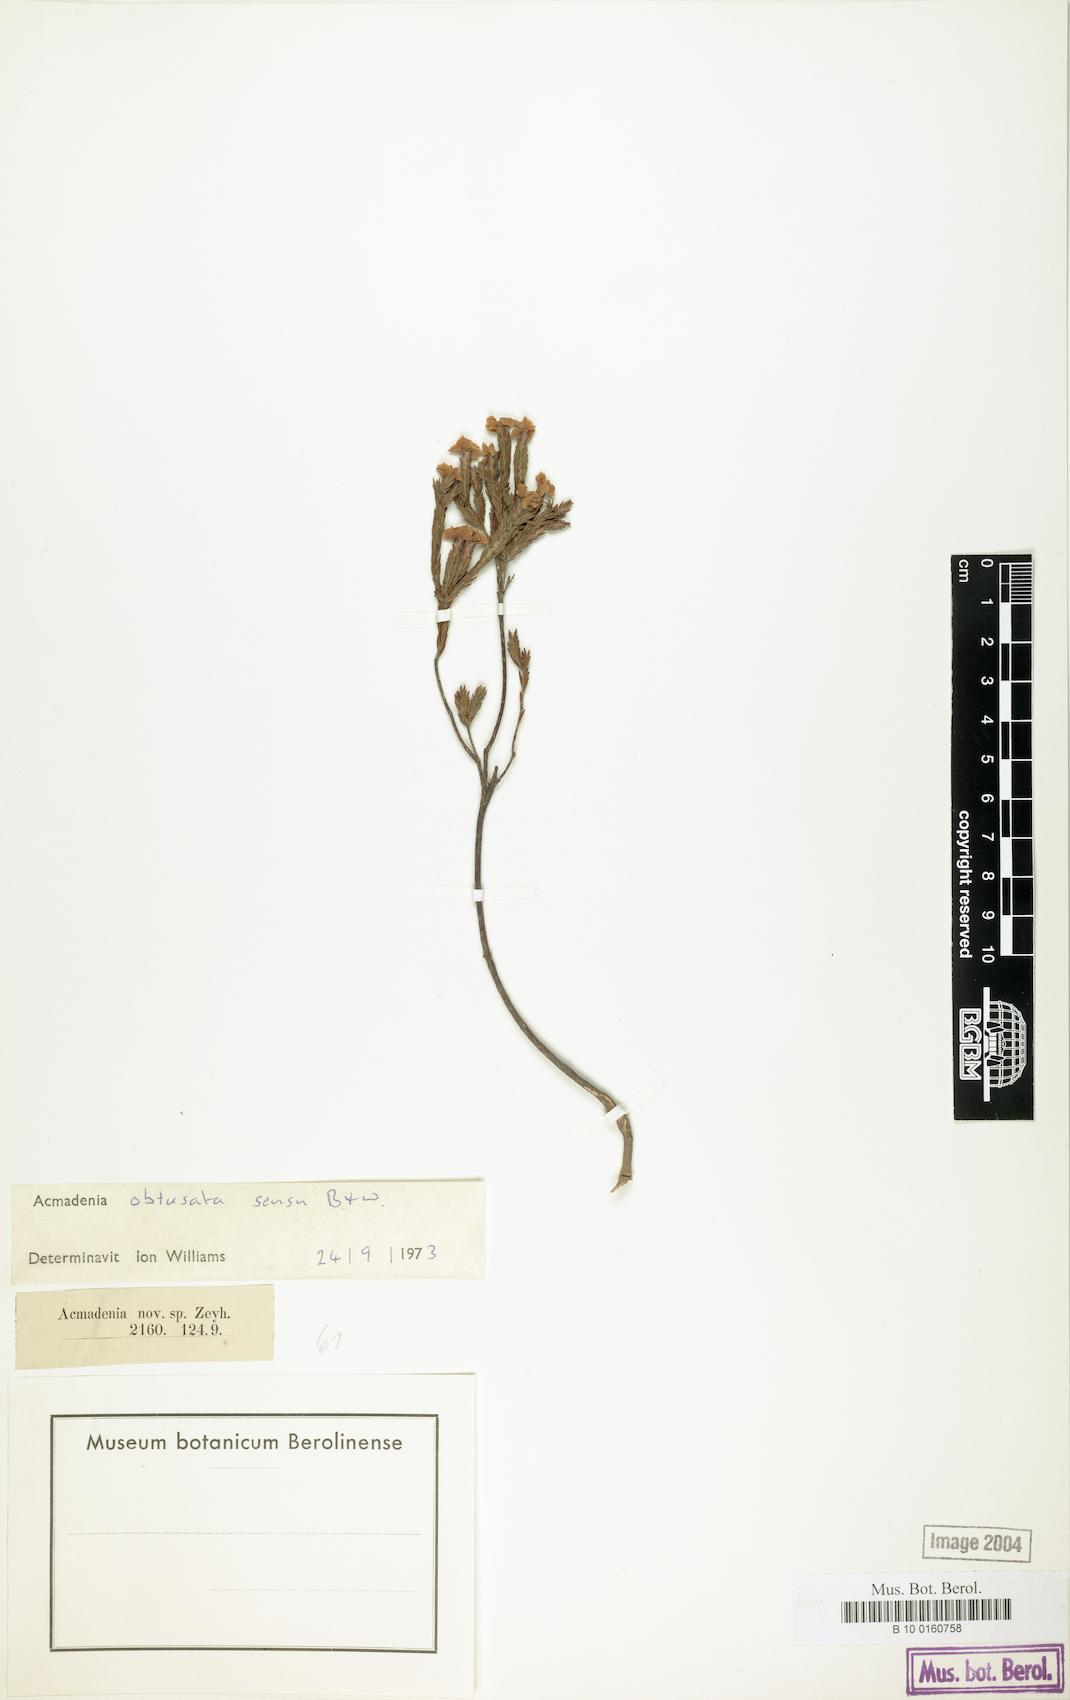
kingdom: Plantae
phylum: Tracheophyta
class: Magnoliopsida
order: Sapindales
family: Rutaceae
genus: Acmadenia
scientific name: Acmadenia
